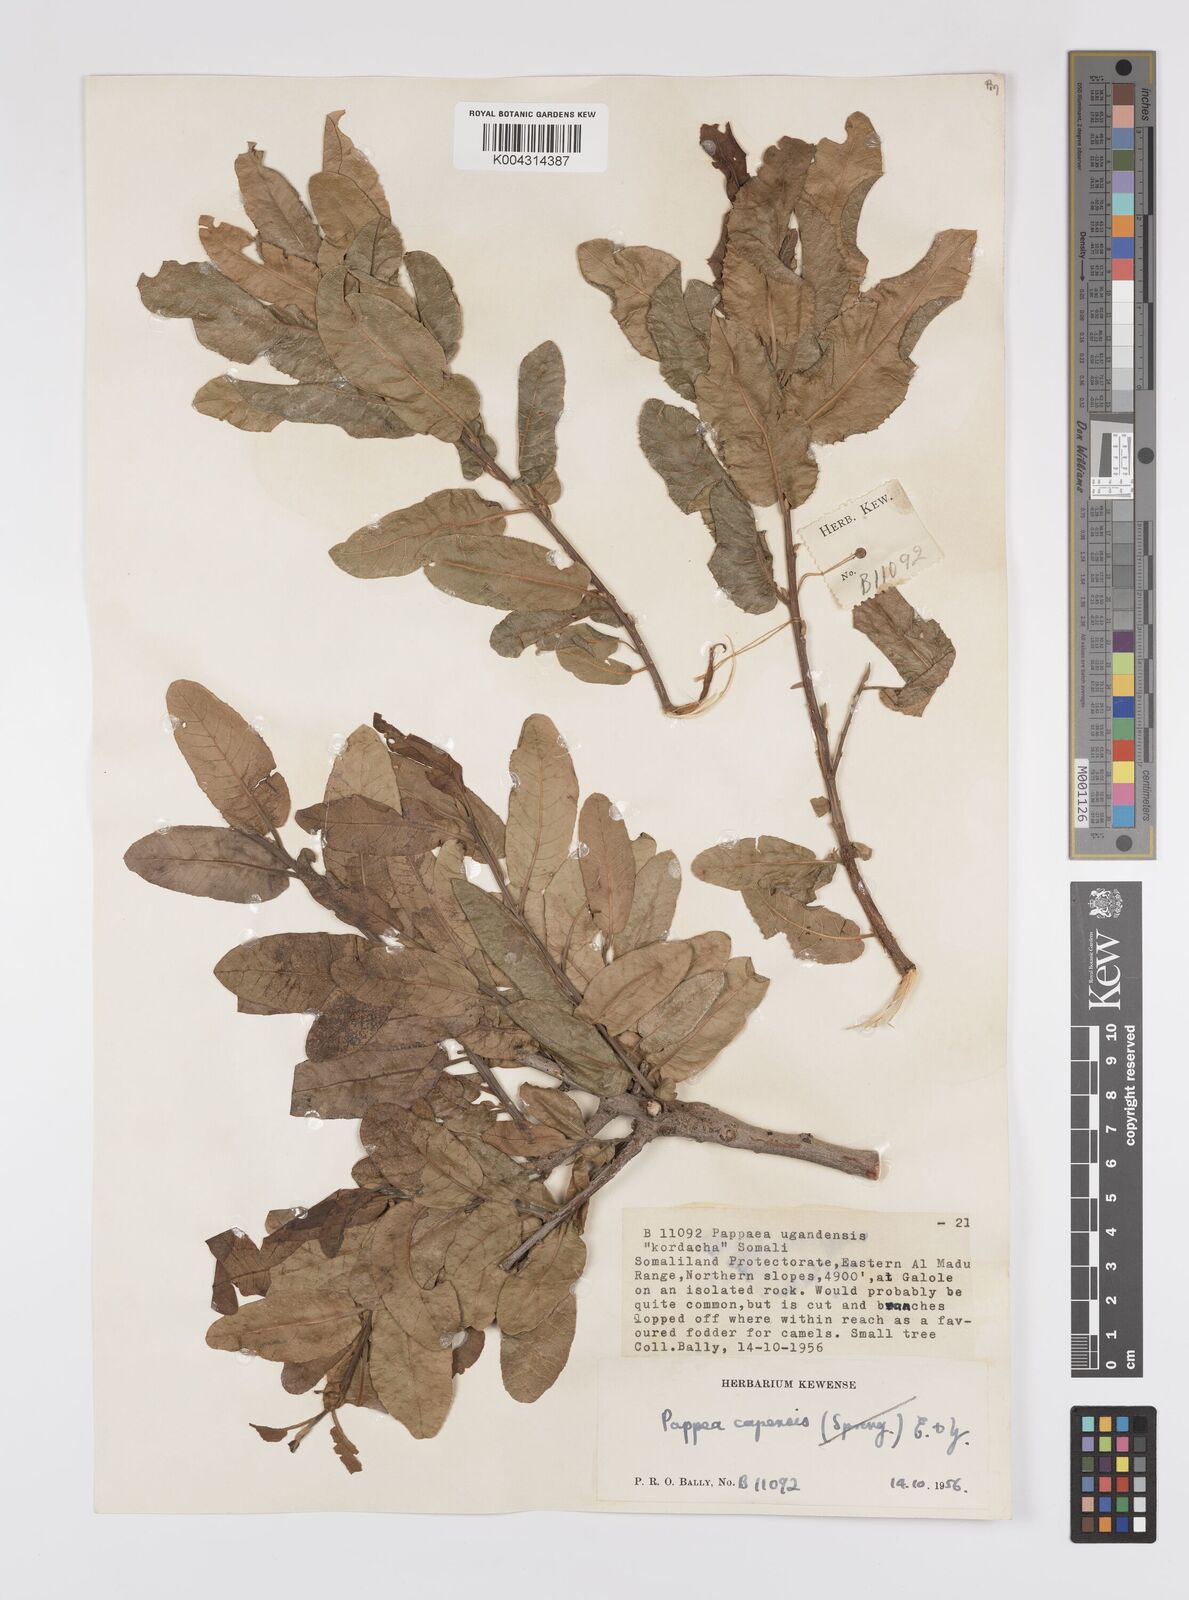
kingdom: Plantae
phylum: Tracheophyta
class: Magnoliopsida
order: Sapindales
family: Sapindaceae
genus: Pappea
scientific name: Pappea capensis
